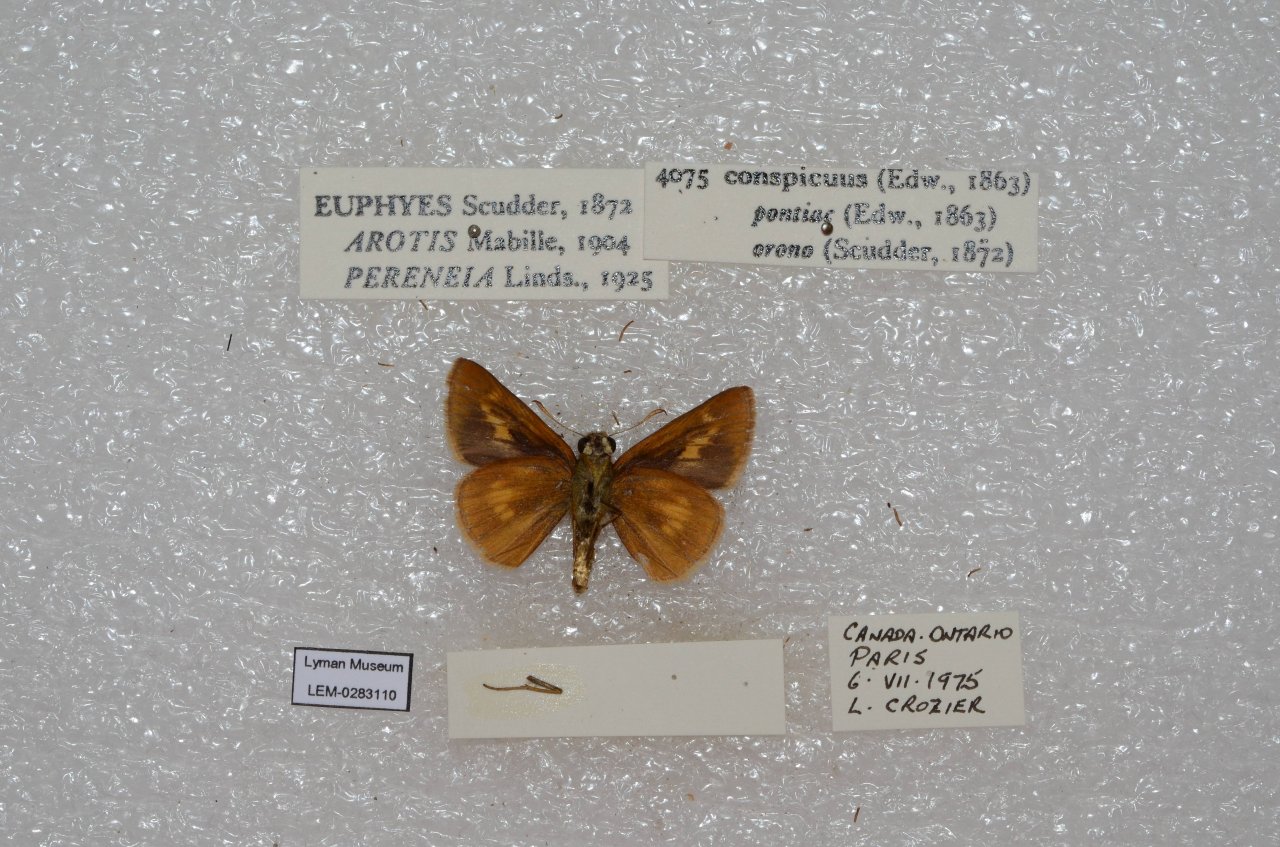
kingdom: Animalia
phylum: Arthropoda
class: Insecta
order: Lepidoptera
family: Hesperiidae
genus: Euphyes
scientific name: Euphyes conspicua
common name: Black Dash
